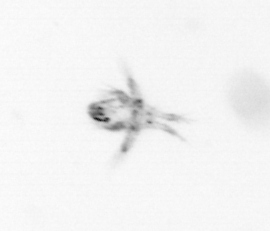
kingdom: Animalia
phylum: Arthropoda
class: Copepoda
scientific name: Copepoda
